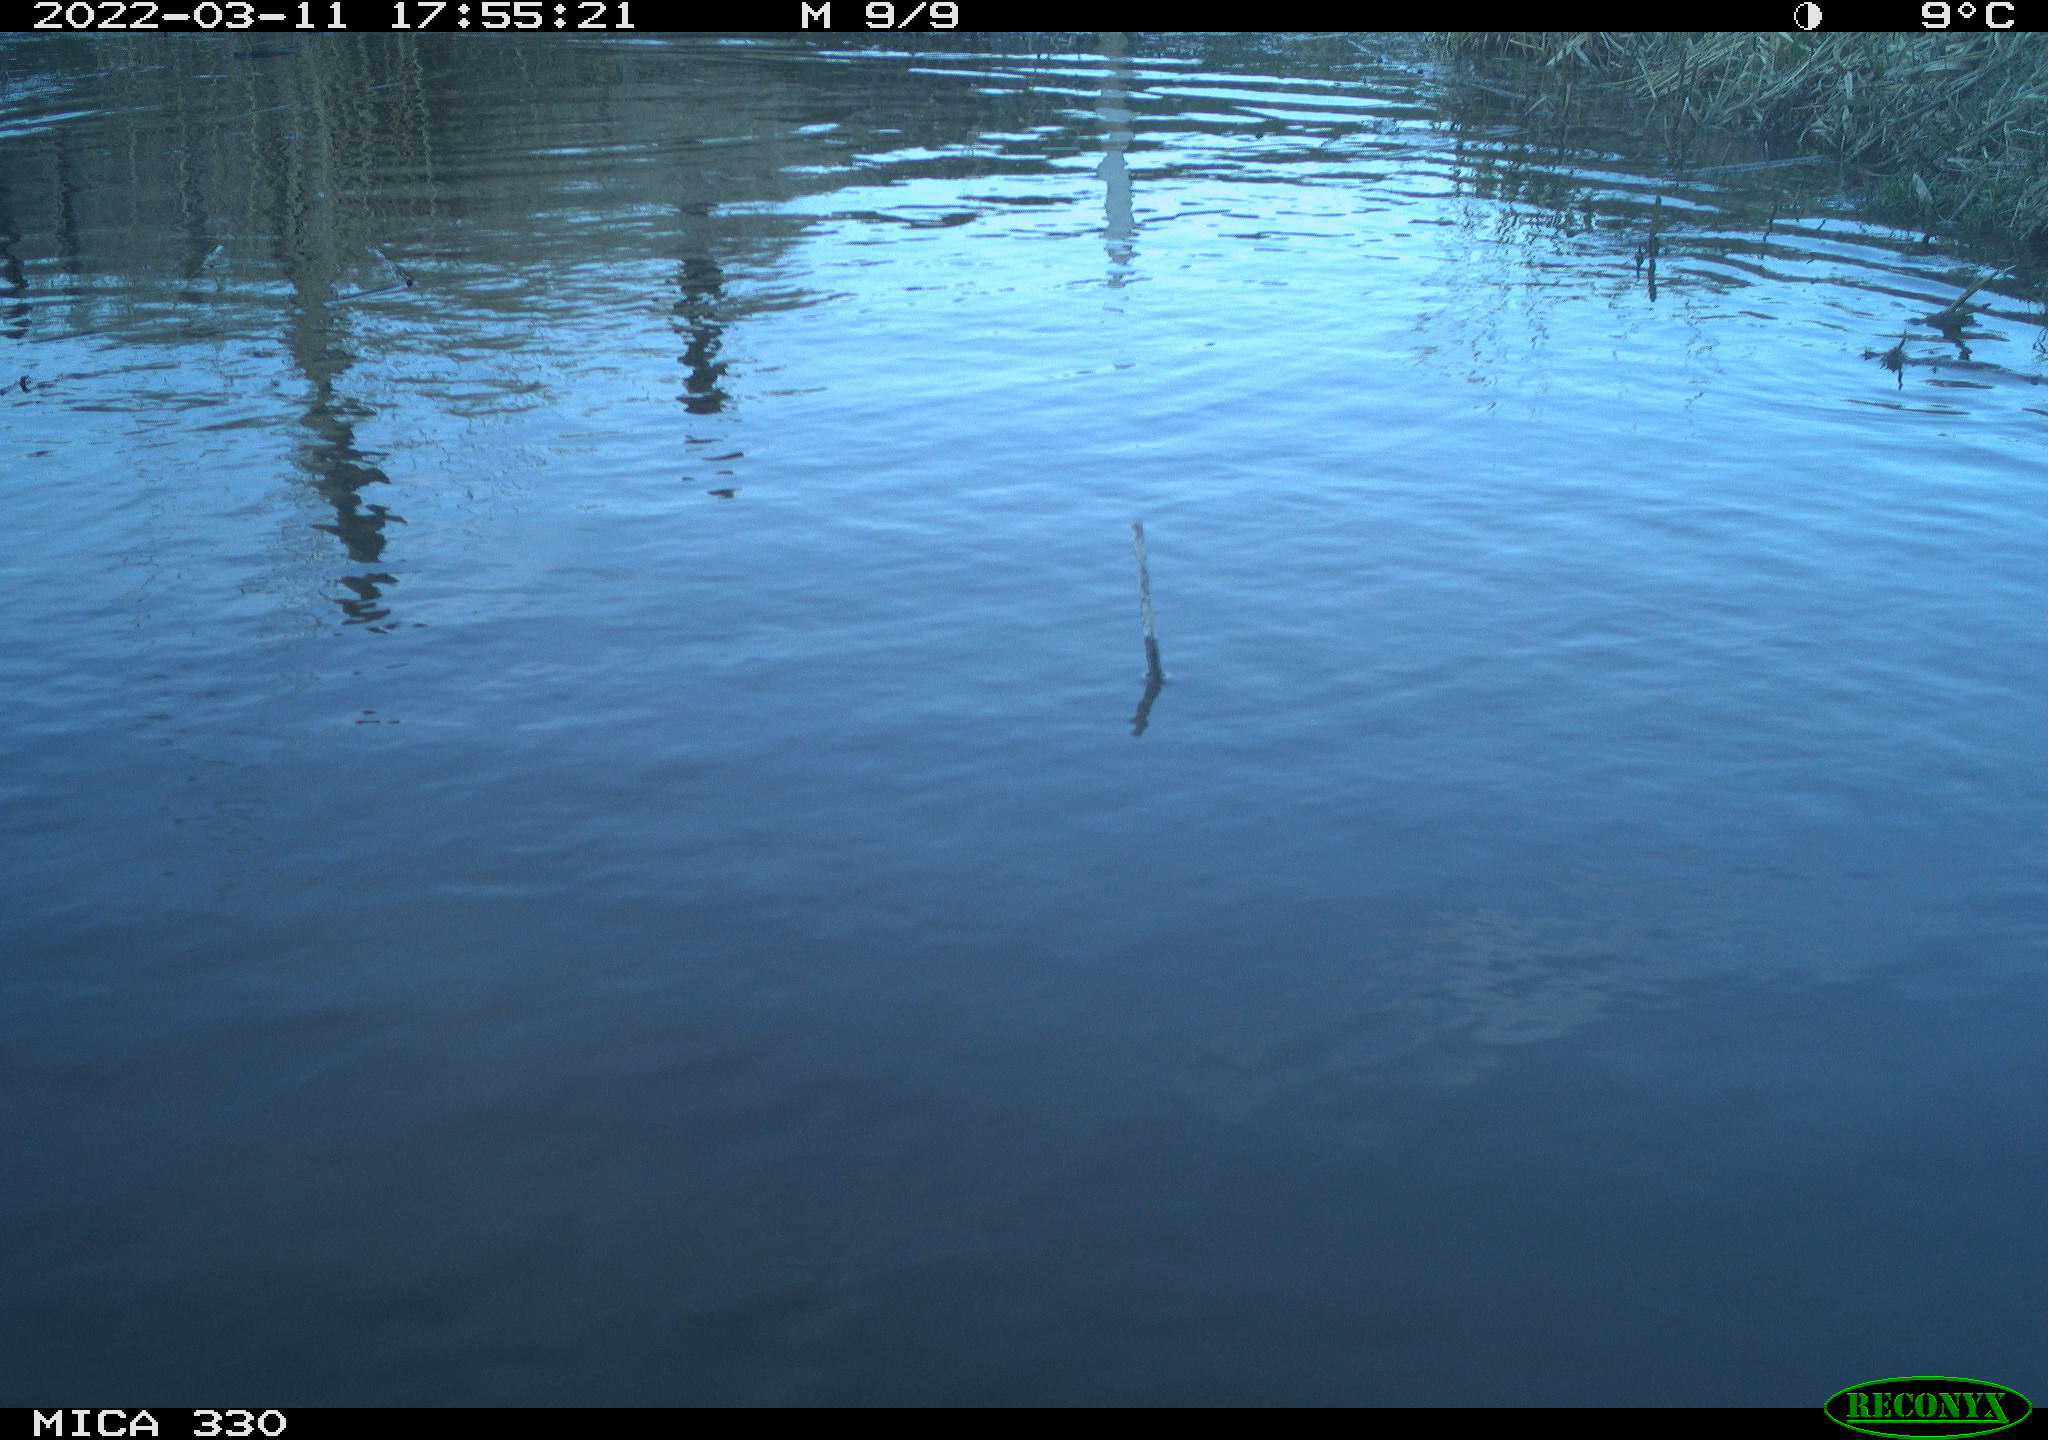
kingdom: Animalia
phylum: Chordata
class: Aves
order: Anseriformes
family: Anatidae
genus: Anas
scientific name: Anas platyrhynchos
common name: Mallard
